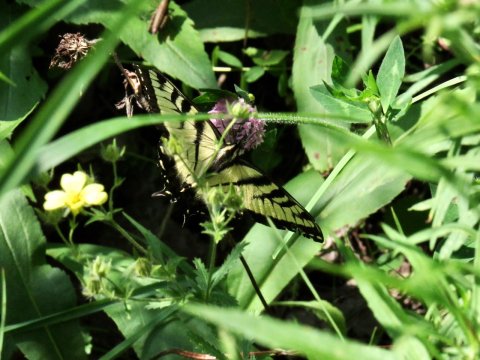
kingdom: Animalia
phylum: Arthropoda
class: Insecta
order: Lepidoptera
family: Papilionidae
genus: Pterourus
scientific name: Pterourus
